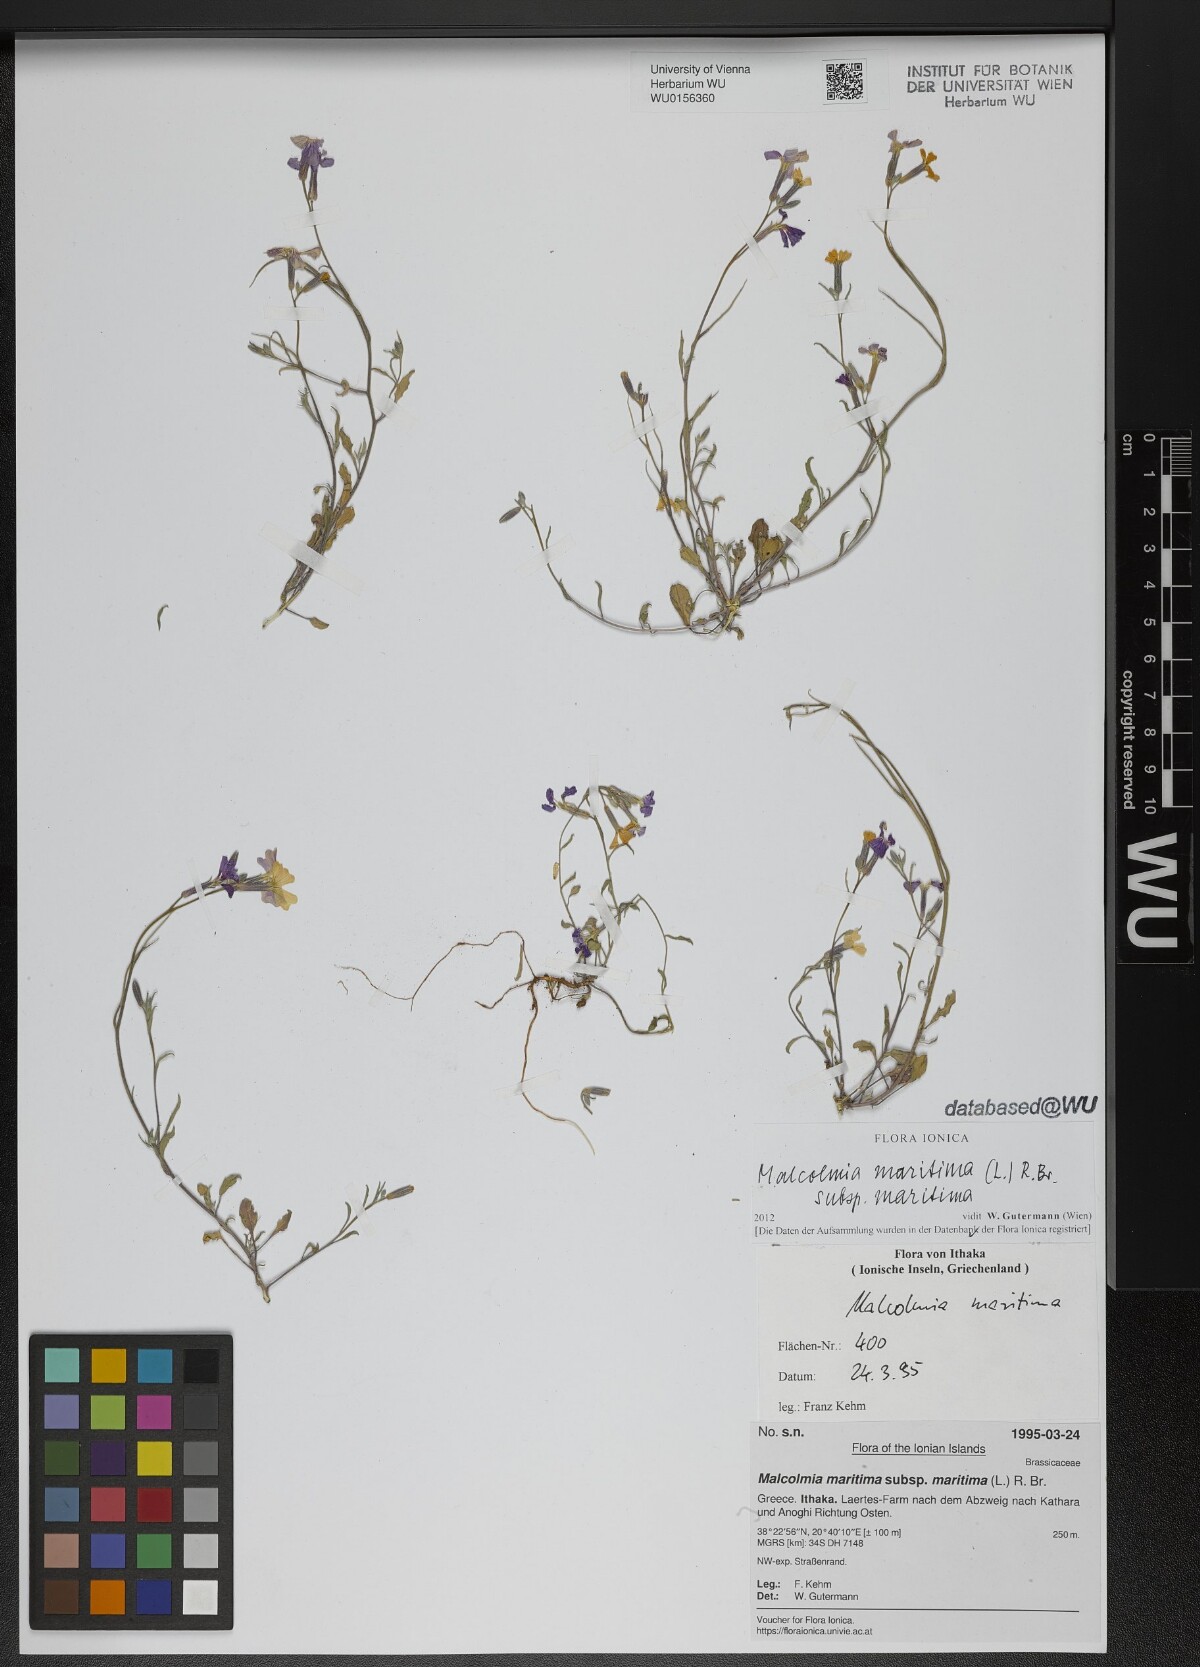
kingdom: Plantae
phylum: Tracheophyta
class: Magnoliopsida
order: Brassicales
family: Brassicaceae
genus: Malcolmia
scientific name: Malcolmia maritima
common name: Virginia stock
